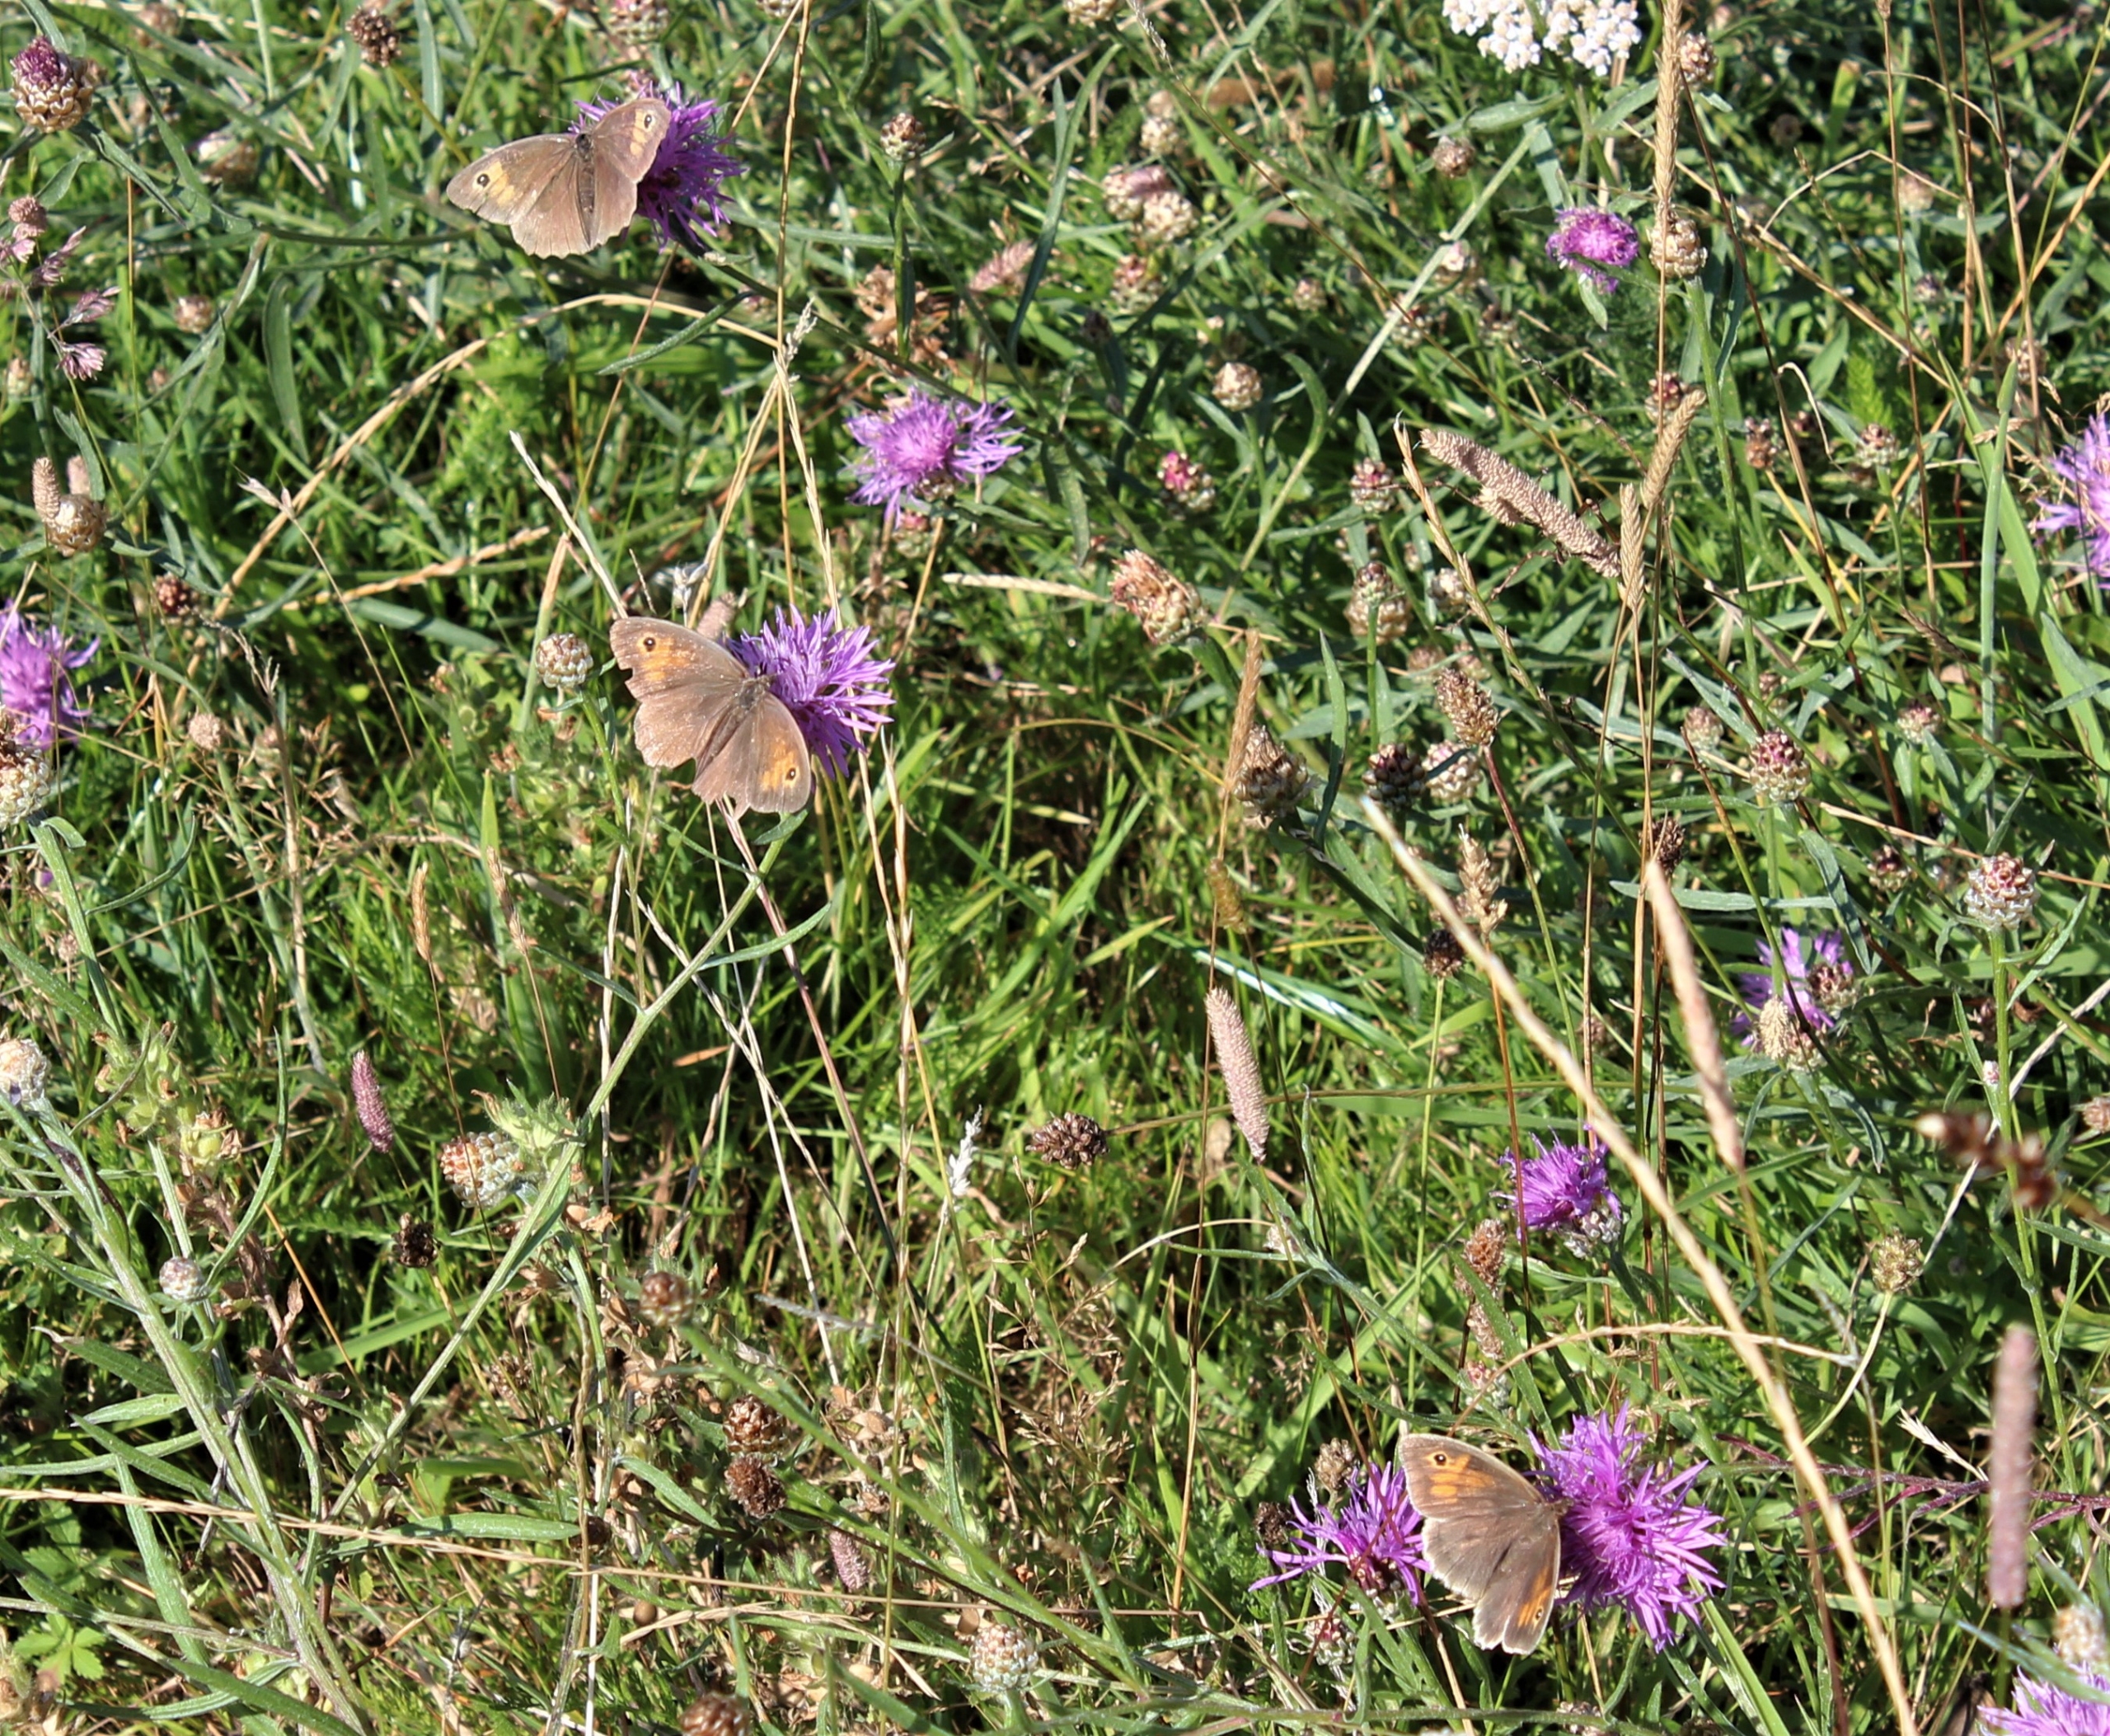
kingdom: Animalia
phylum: Arthropoda
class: Insecta
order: Lepidoptera
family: Nymphalidae
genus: Maniola
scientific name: Maniola jurtina
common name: Græsrandøje
